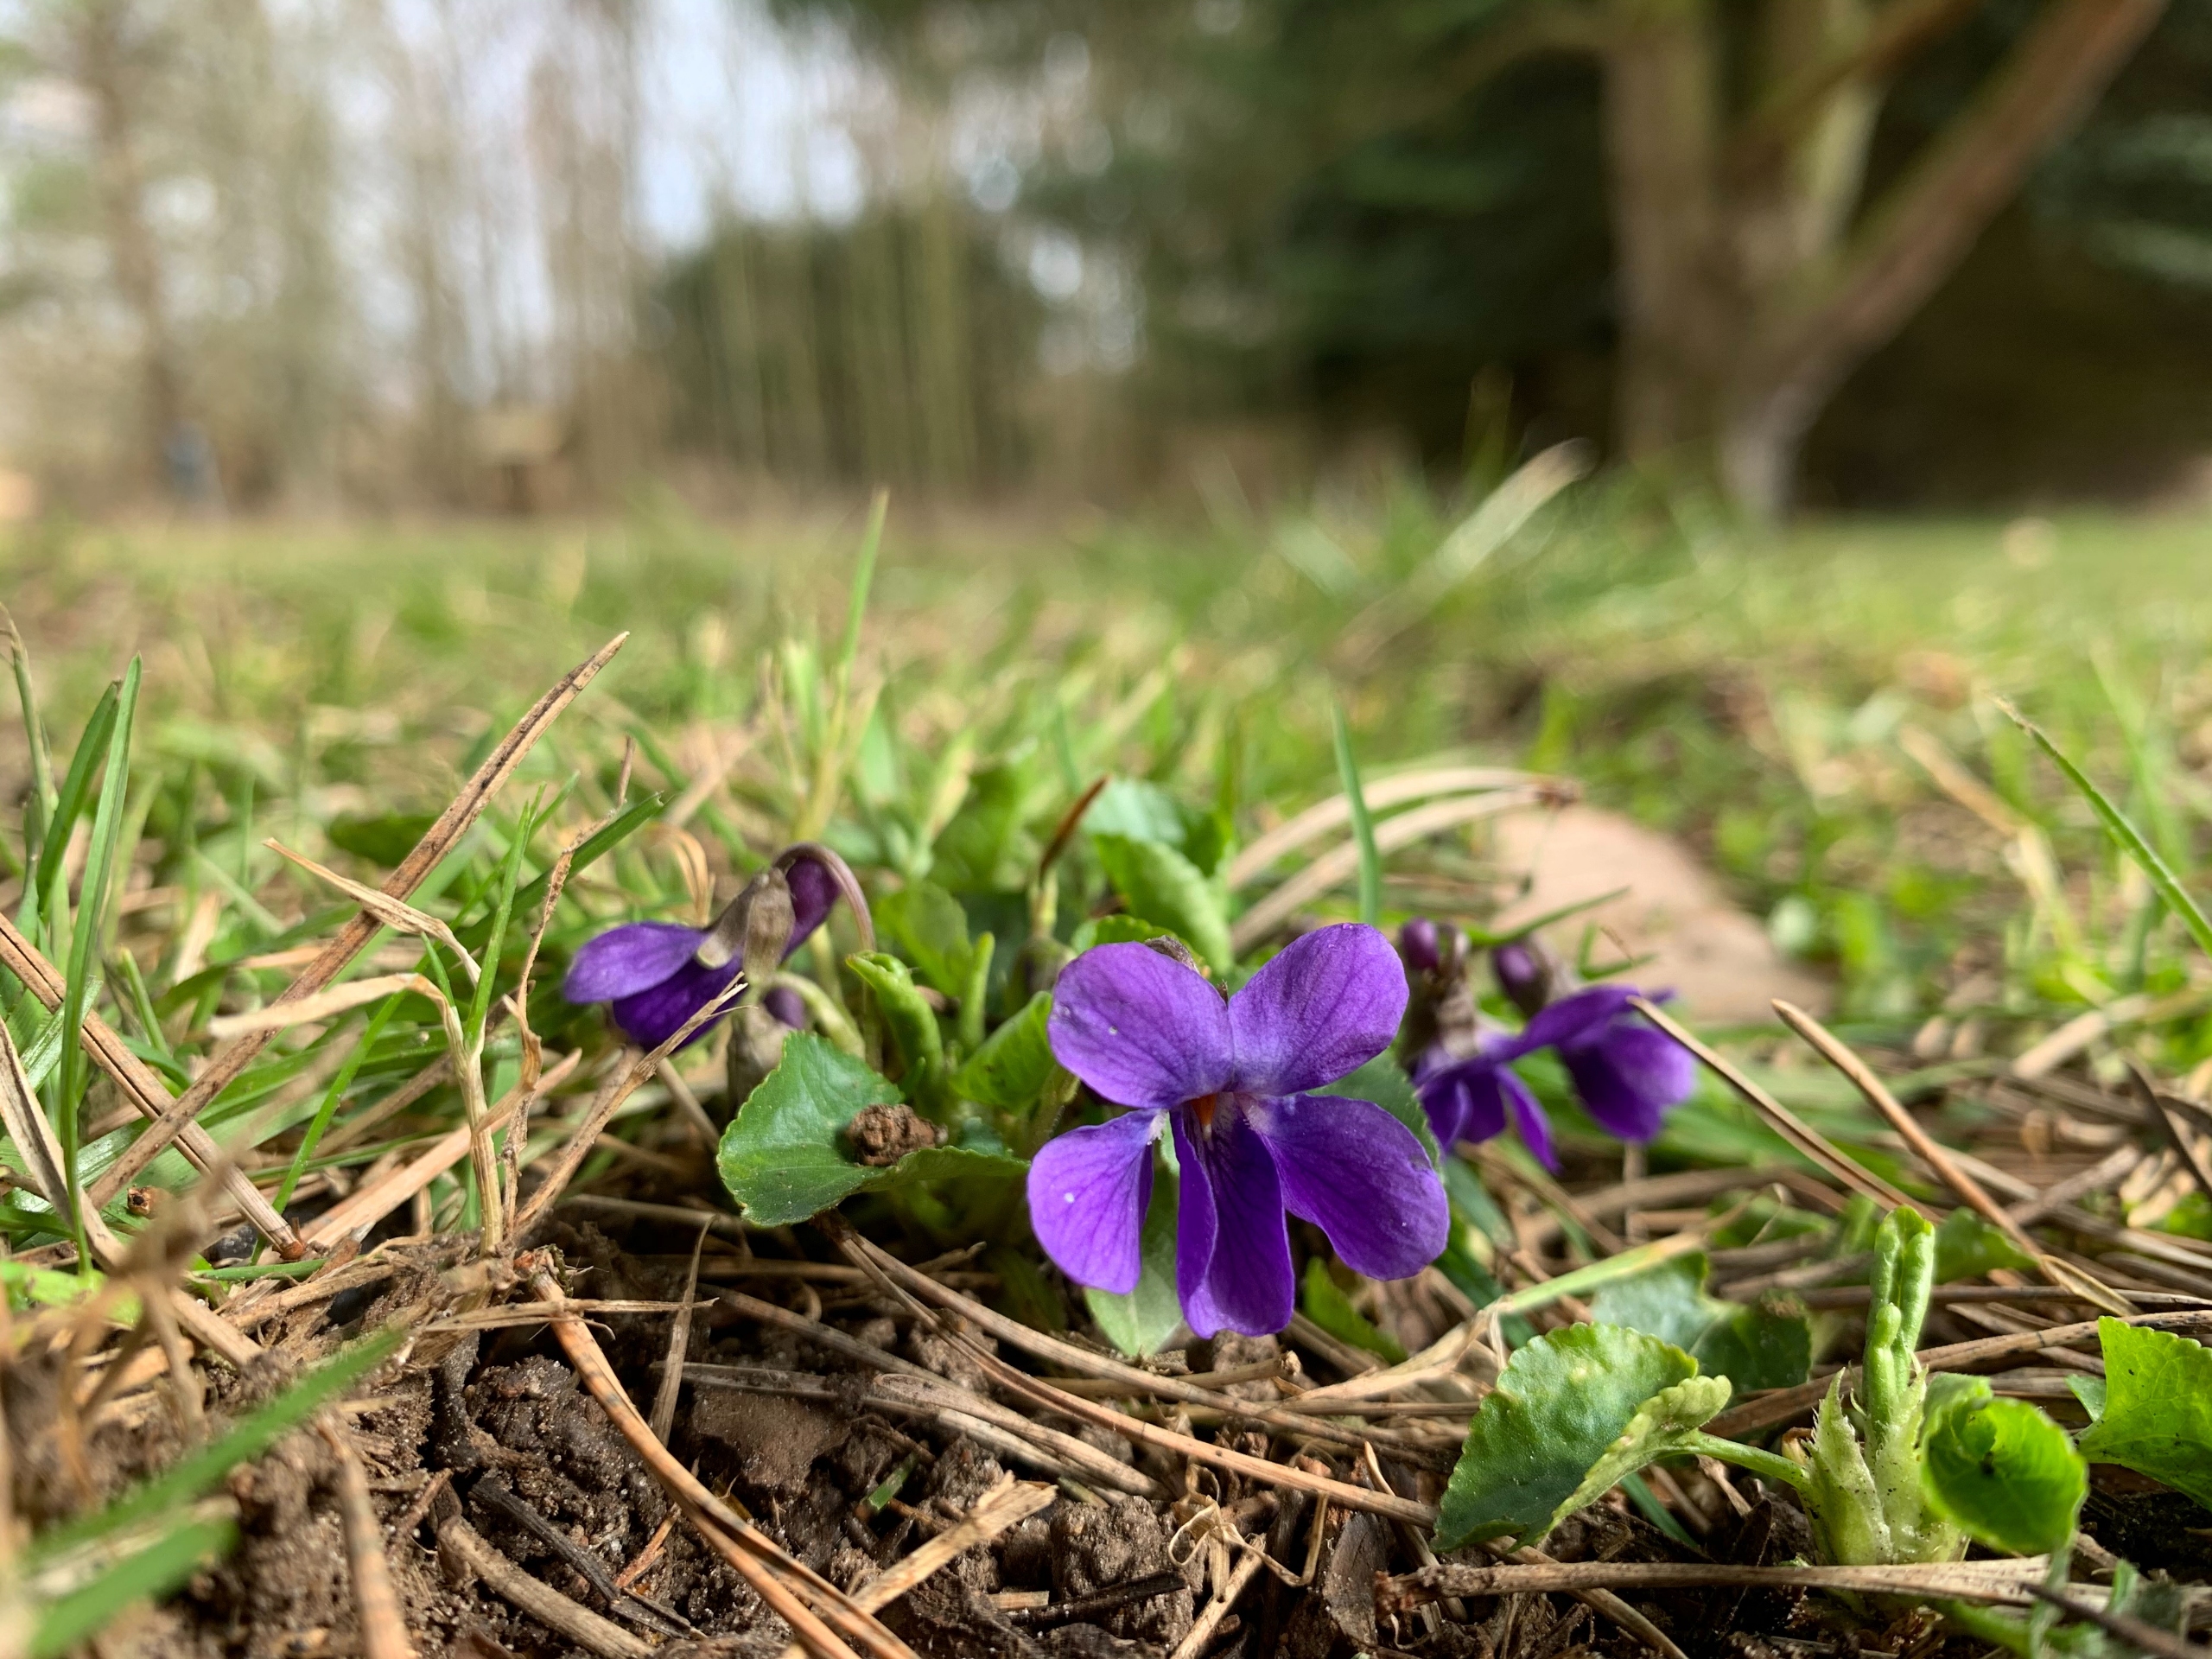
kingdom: Plantae
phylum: Tracheophyta
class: Magnoliopsida
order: Malpighiales
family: Violaceae
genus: Viola
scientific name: Viola odorata
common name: Marts-viol
